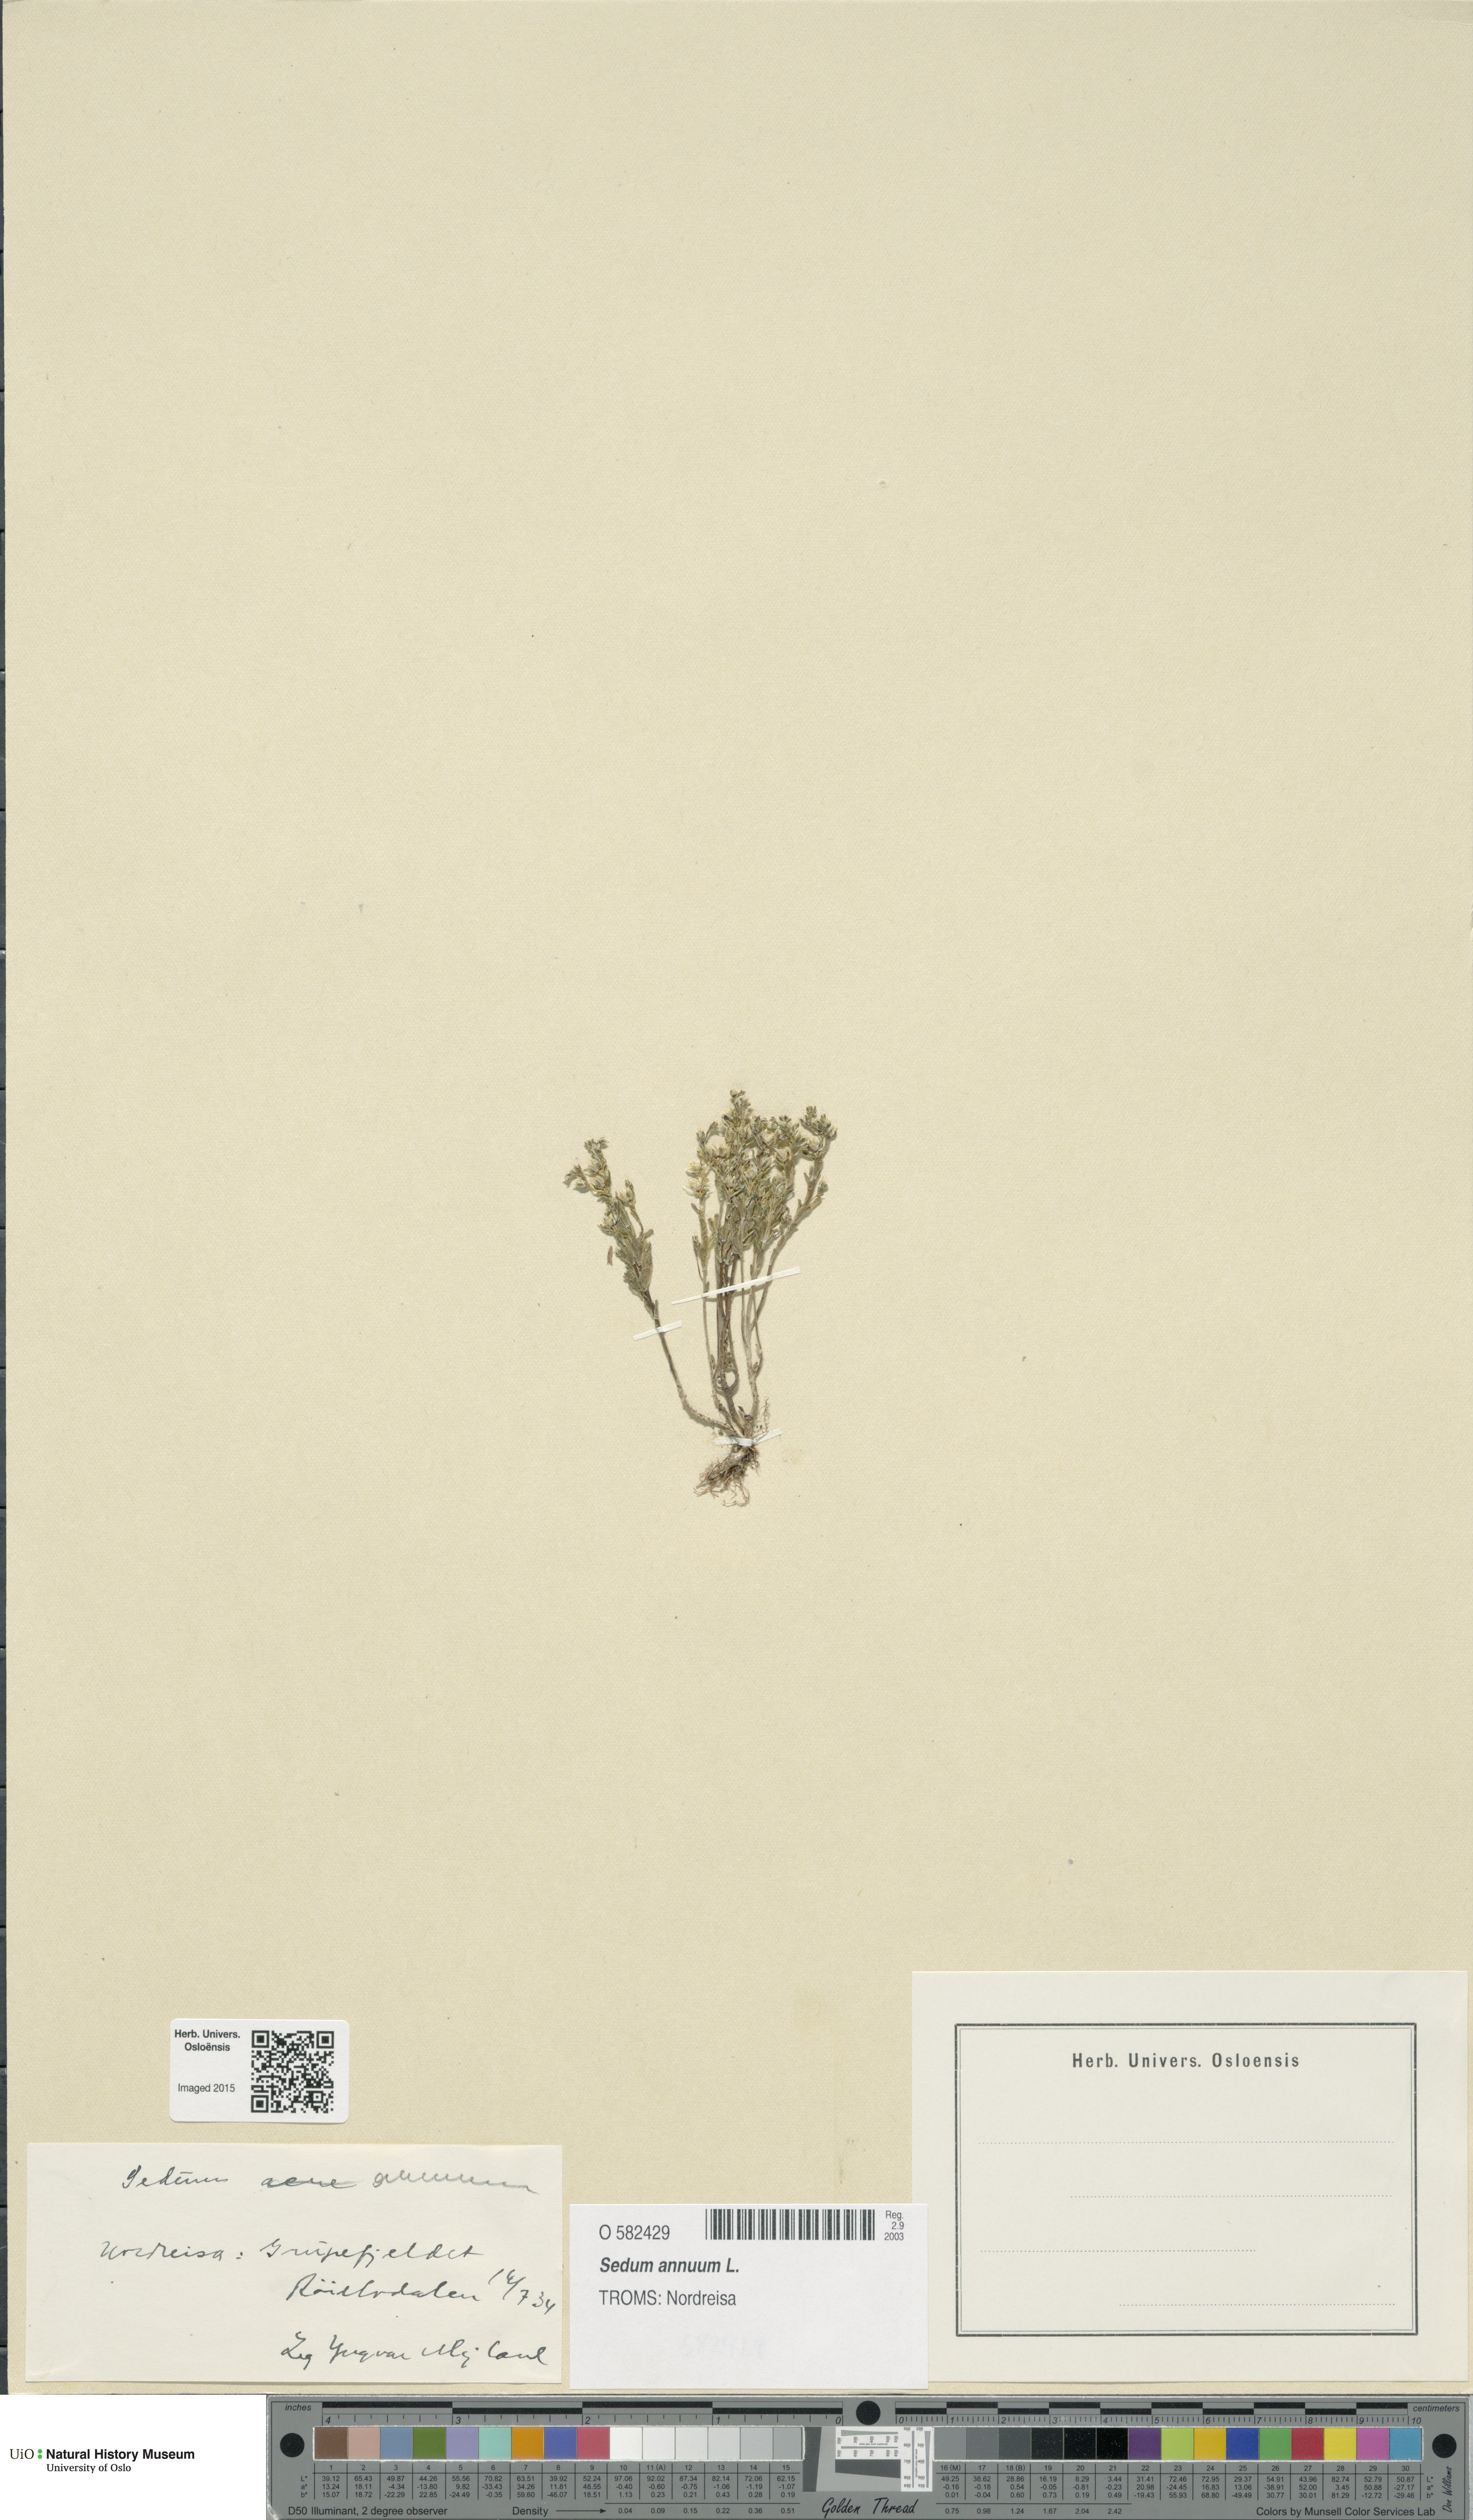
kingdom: Plantae
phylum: Tracheophyta
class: Magnoliopsida
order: Saxifragales
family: Crassulaceae
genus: Sedum
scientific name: Sedum annuum
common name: Annual stonecrop
